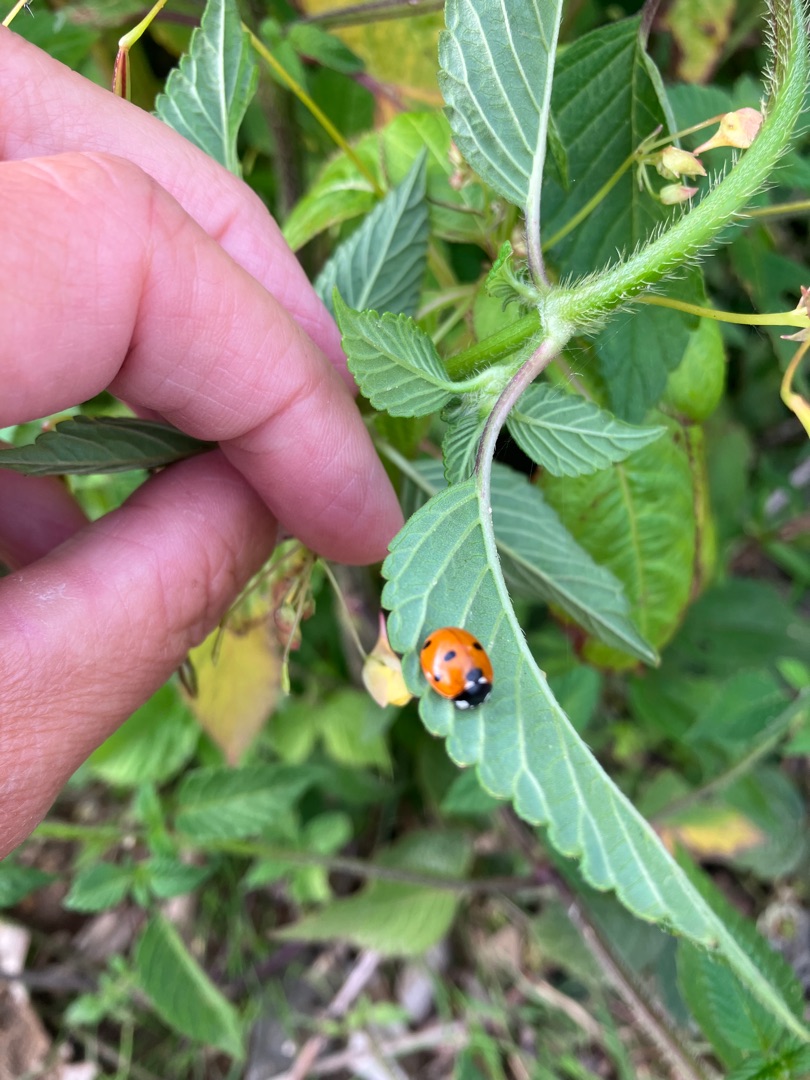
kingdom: Animalia
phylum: Arthropoda
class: Insecta
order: Coleoptera
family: Coccinellidae
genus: Coccinella
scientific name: Coccinella septempunctata
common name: Syvplettet mariehøne
